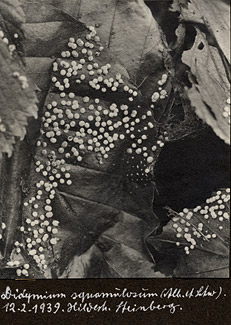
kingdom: Protozoa
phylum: Mycetozoa
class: Myxomycetes
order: Physarales
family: Didymiaceae
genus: Didymium
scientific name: Didymium squamulosum
